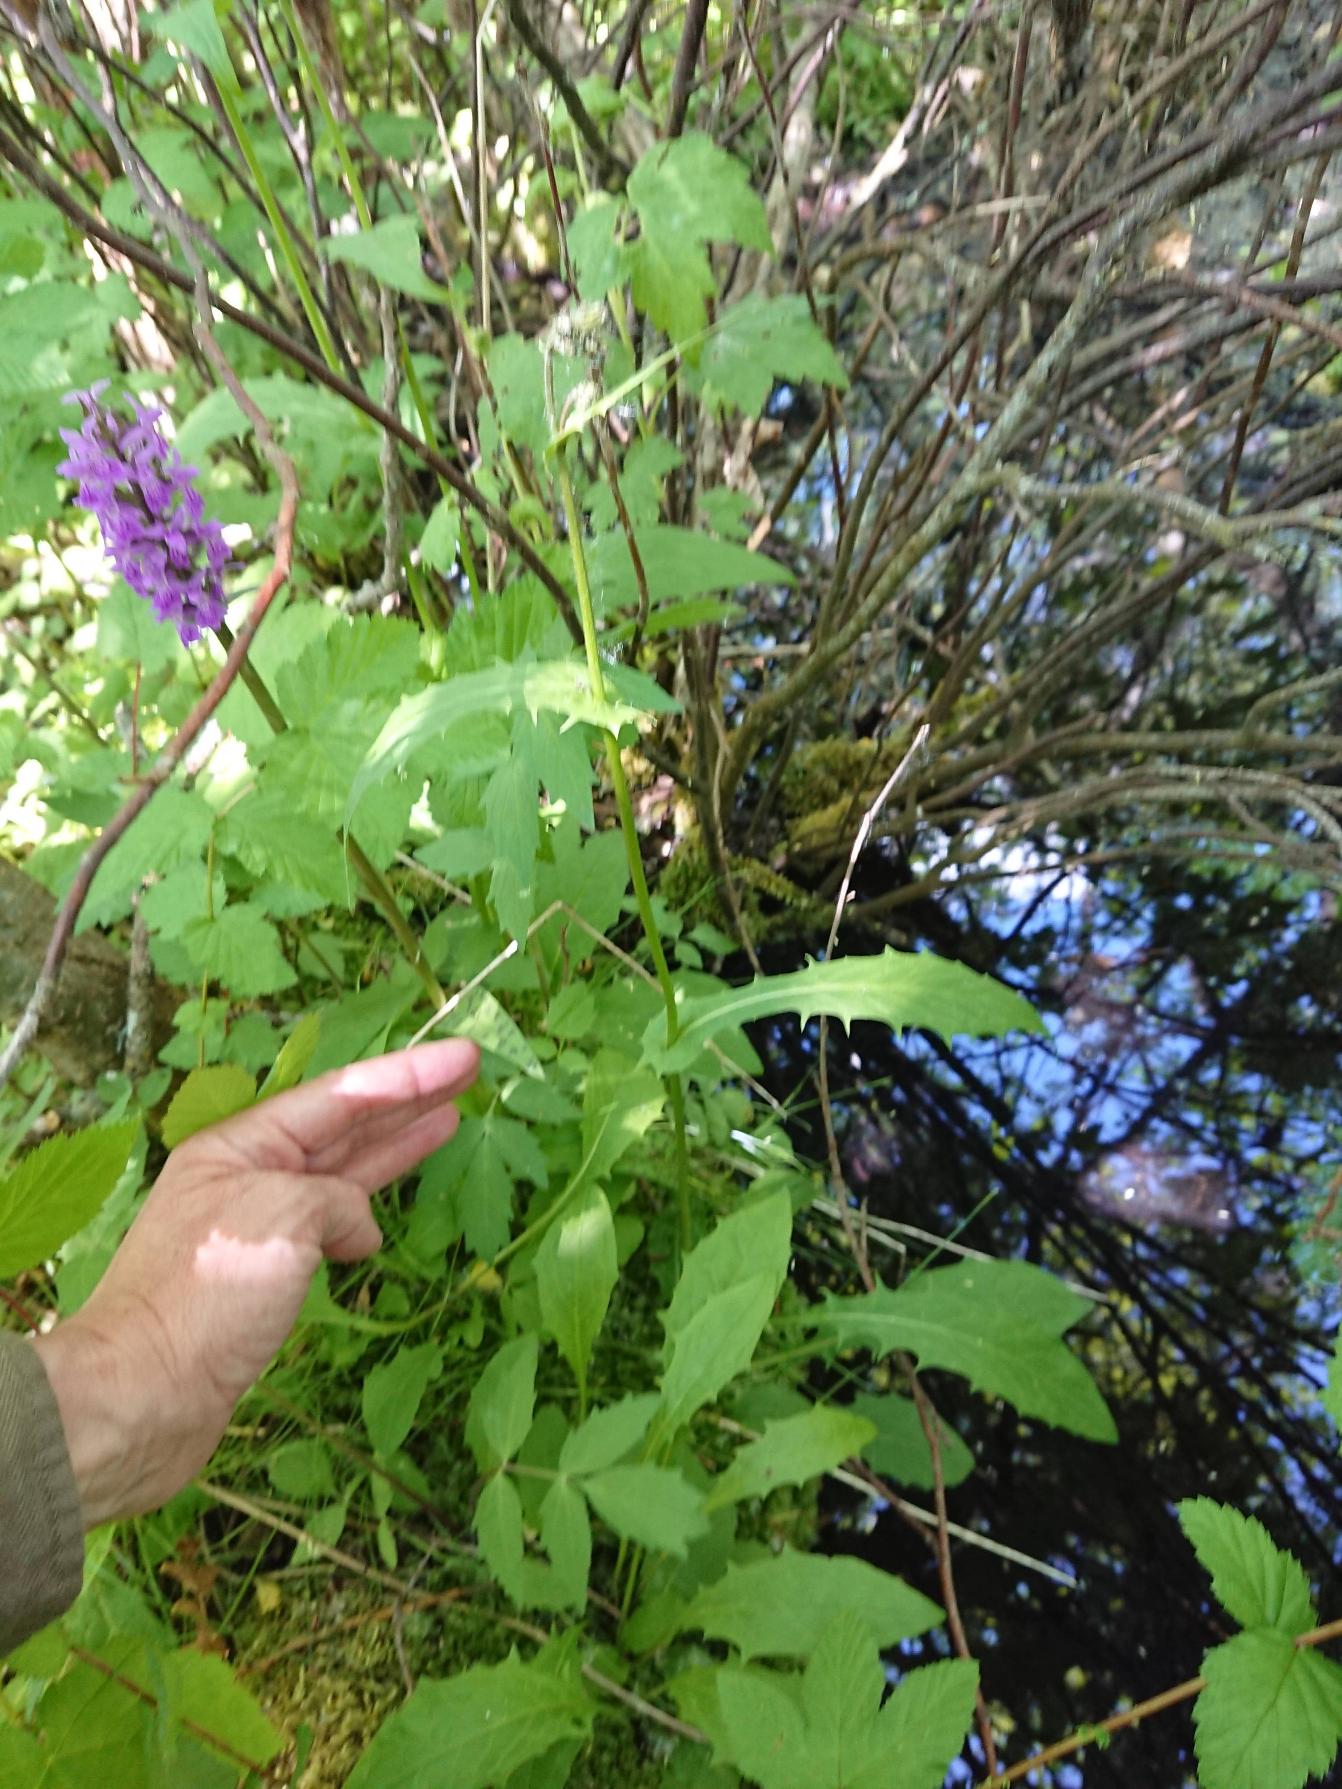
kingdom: Plantae
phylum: Tracheophyta
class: Magnoliopsida
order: Asterales
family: Asteraceae
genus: Crepis
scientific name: Crepis paludosa
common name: Kær-høgeskæg
